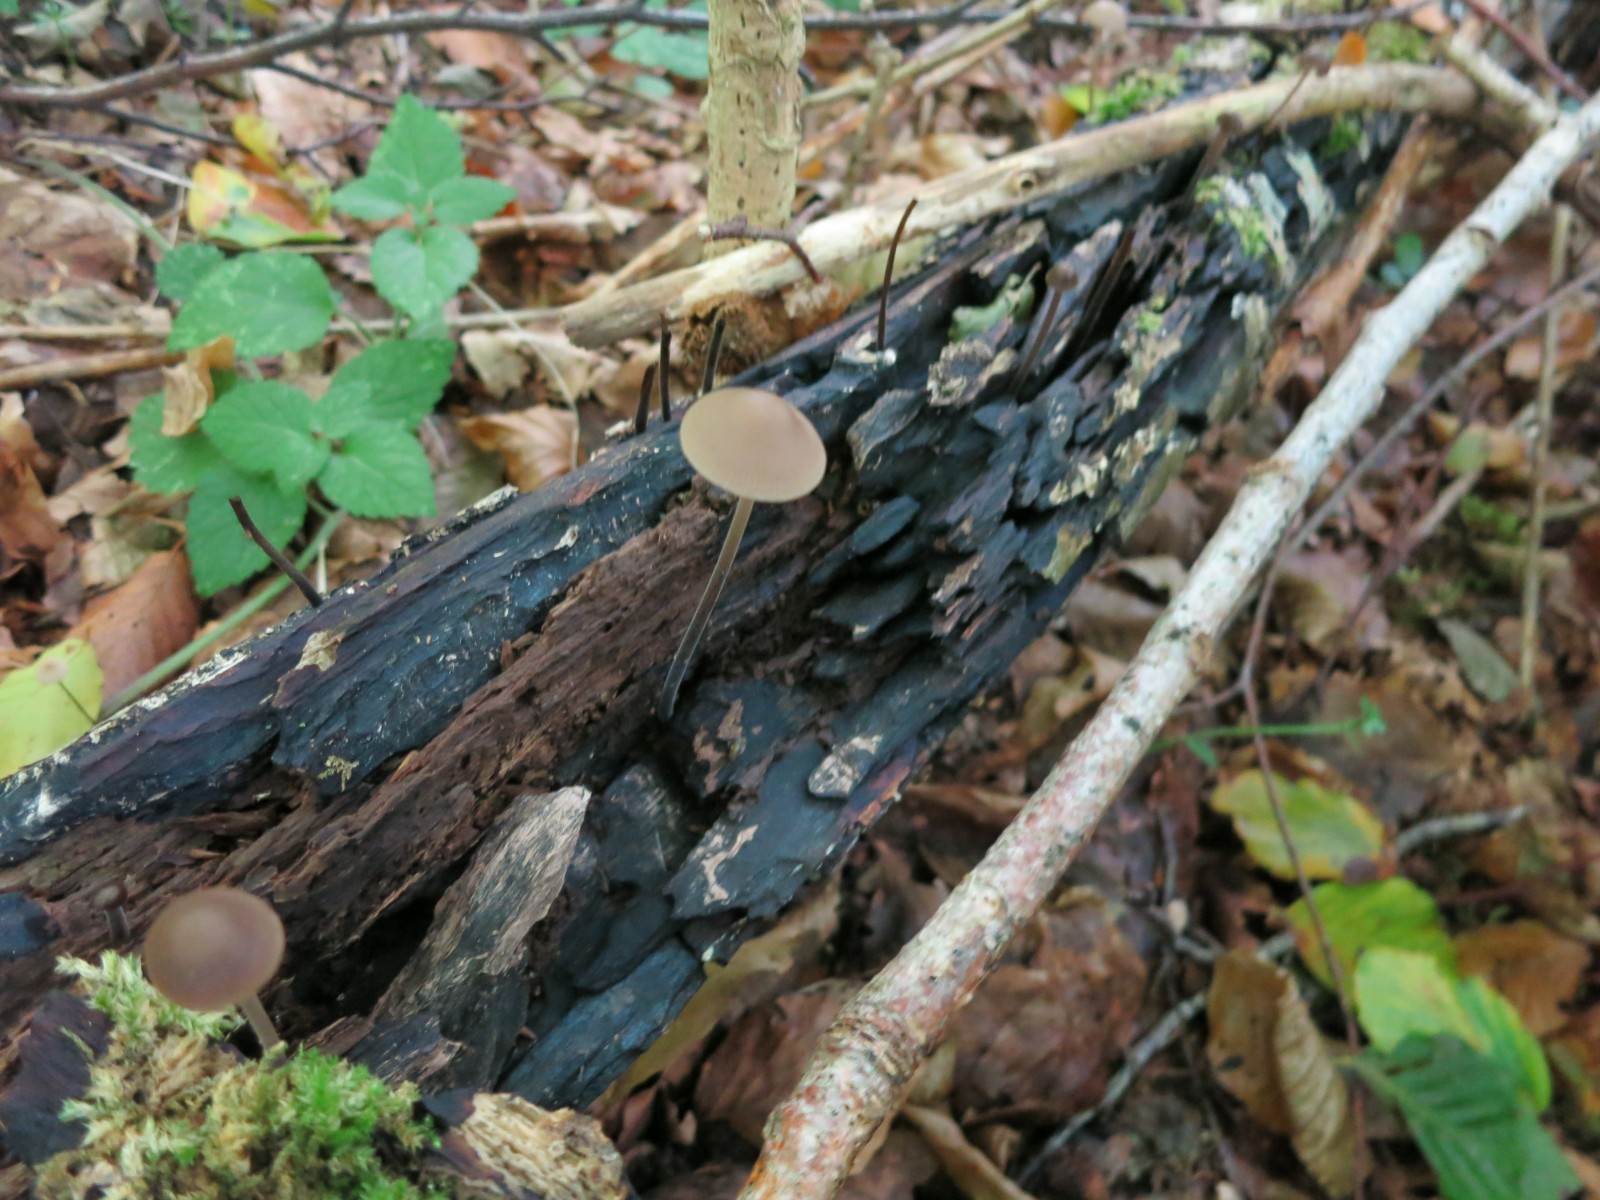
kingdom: Fungi
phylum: Basidiomycota
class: Agaricomycetes
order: Agaricales
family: Omphalotaceae
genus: Mycetinis
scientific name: Mycetinis alliaceus
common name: stor løghat
